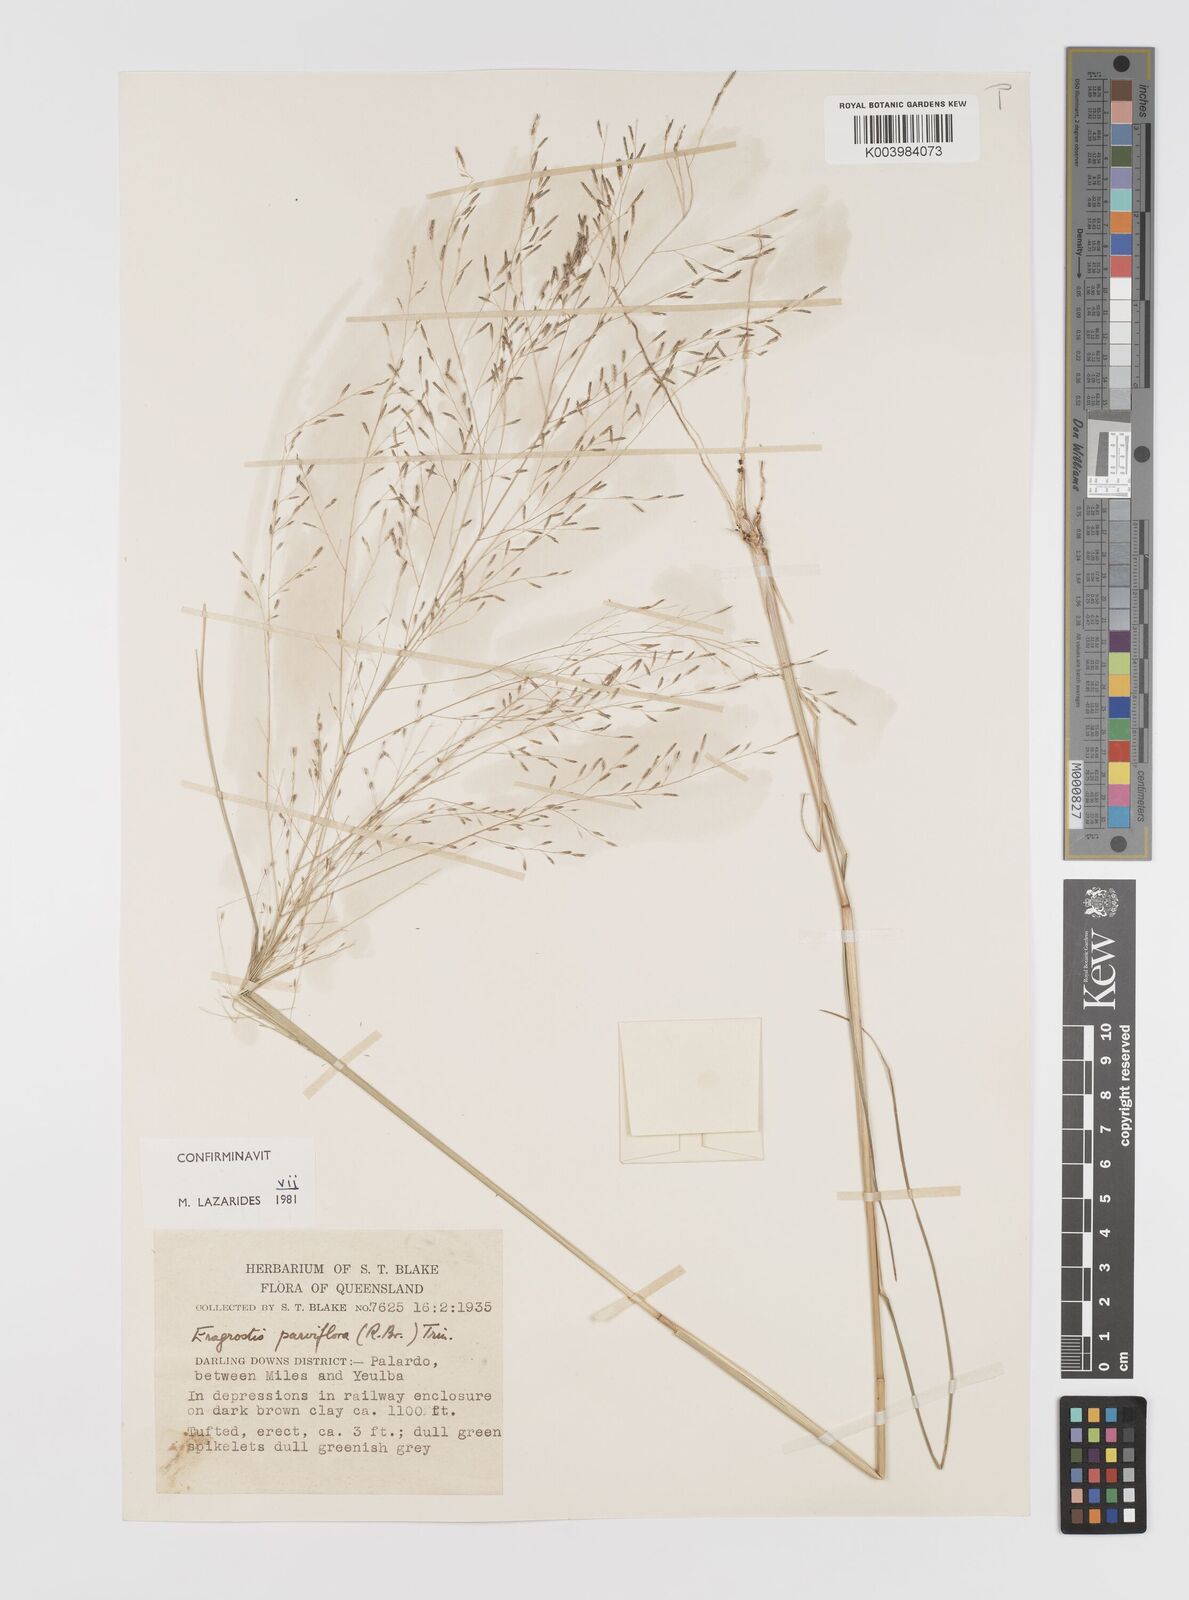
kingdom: Plantae
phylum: Tracheophyta
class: Liliopsida
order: Poales
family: Poaceae
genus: Eragrostis
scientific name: Eragrostis parviflora
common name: Weeping love-grass
